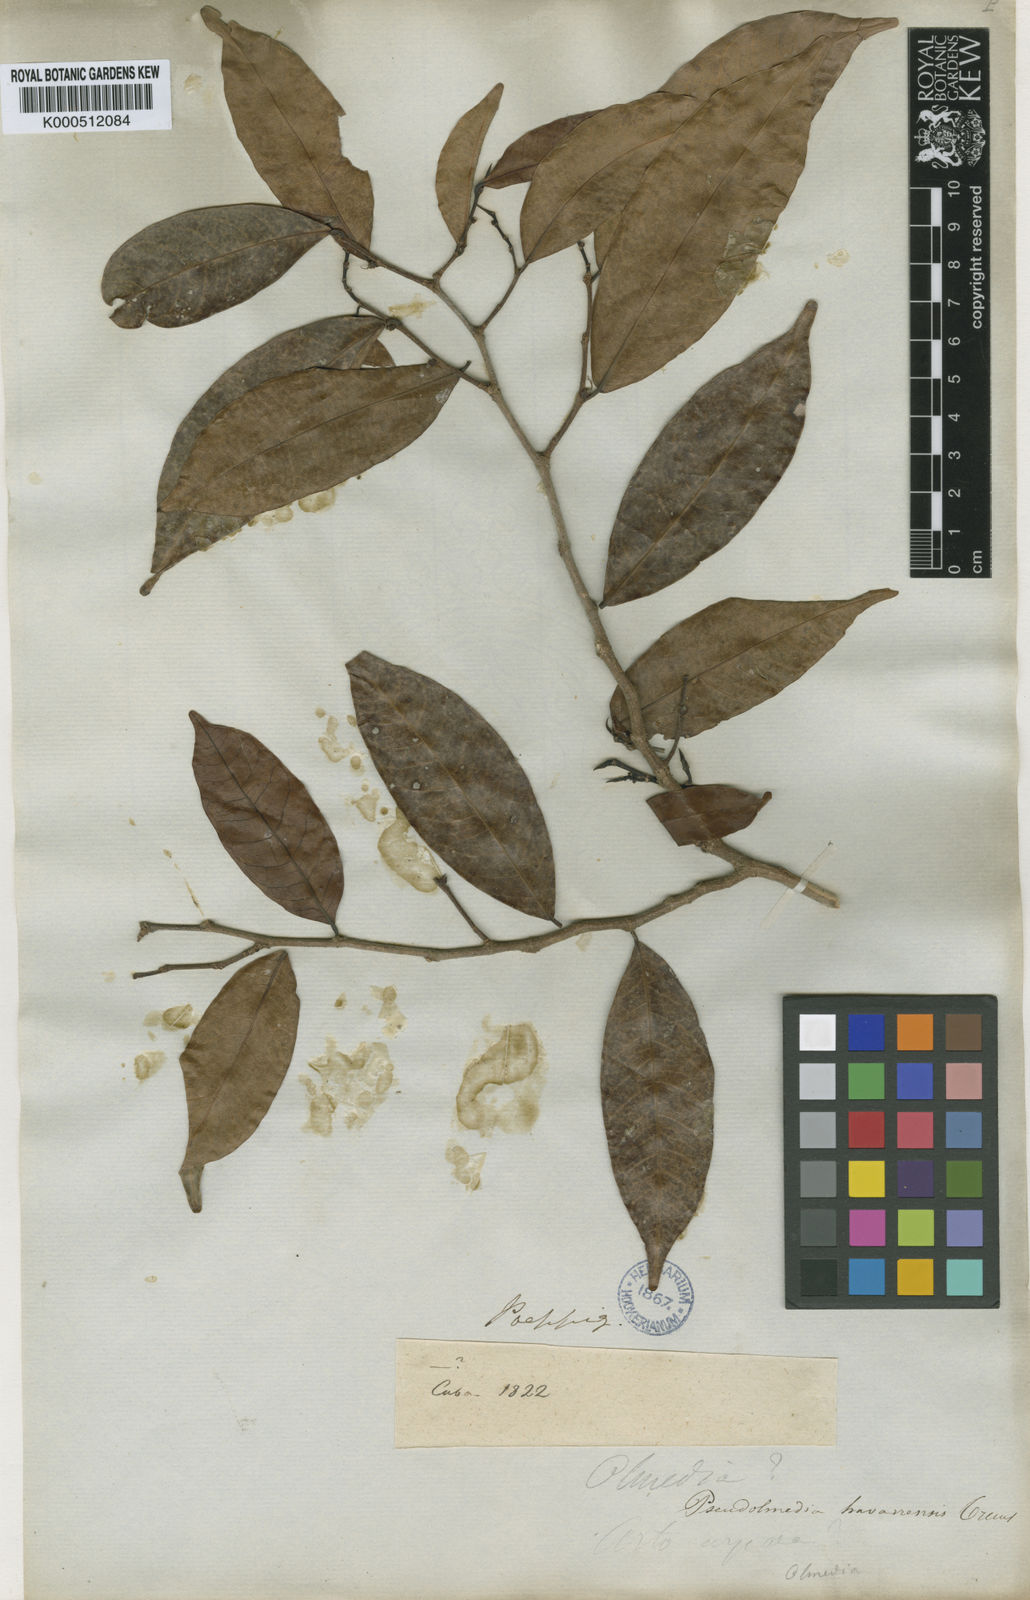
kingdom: Plantae
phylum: Tracheophyta
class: Magnoliopsida
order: Rosales
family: Moraceae
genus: Pseudolmedia
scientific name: Pseudolmedia spuria
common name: Bastard-cherry
